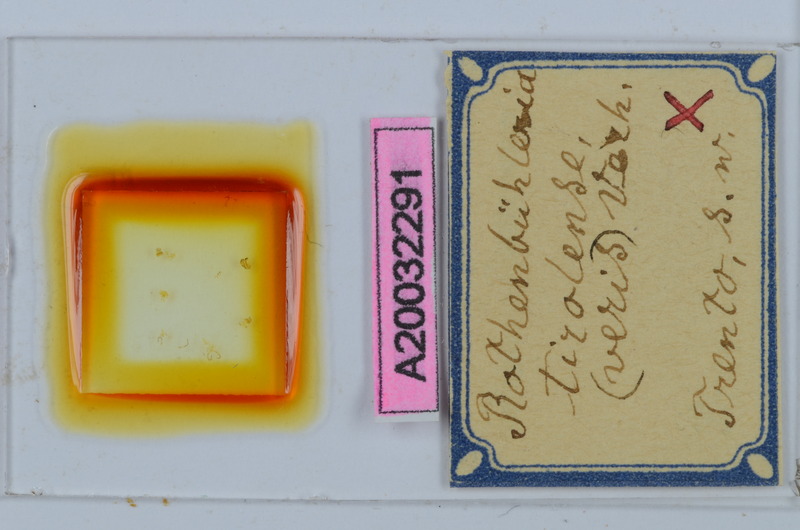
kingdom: Animalia
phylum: Arthropoda
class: Diplopoda
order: Chordeumatida
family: Craspedosomatidae
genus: Rothenbuehleria
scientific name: Rothenbuehleria tirolense
